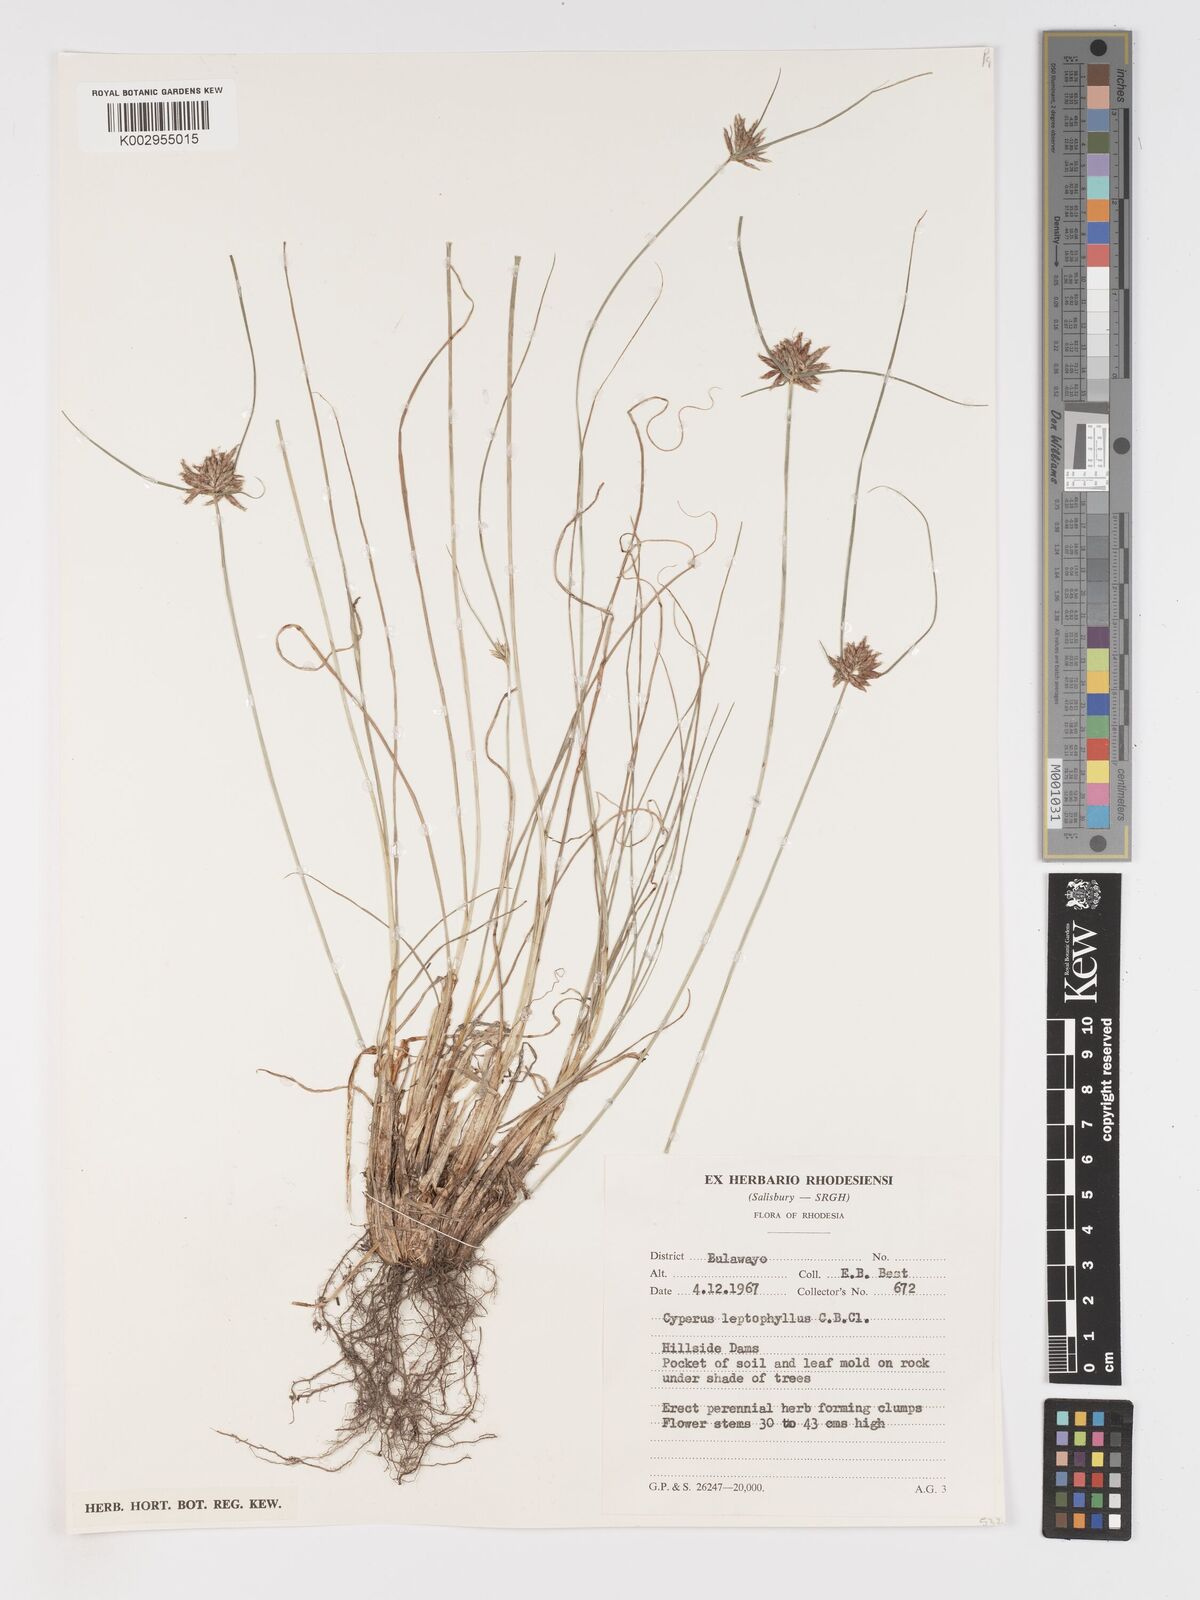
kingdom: Plantae
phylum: Tracheophyta
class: Liliopsida
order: Poales
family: Cyperaceae
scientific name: Cyperaceae
